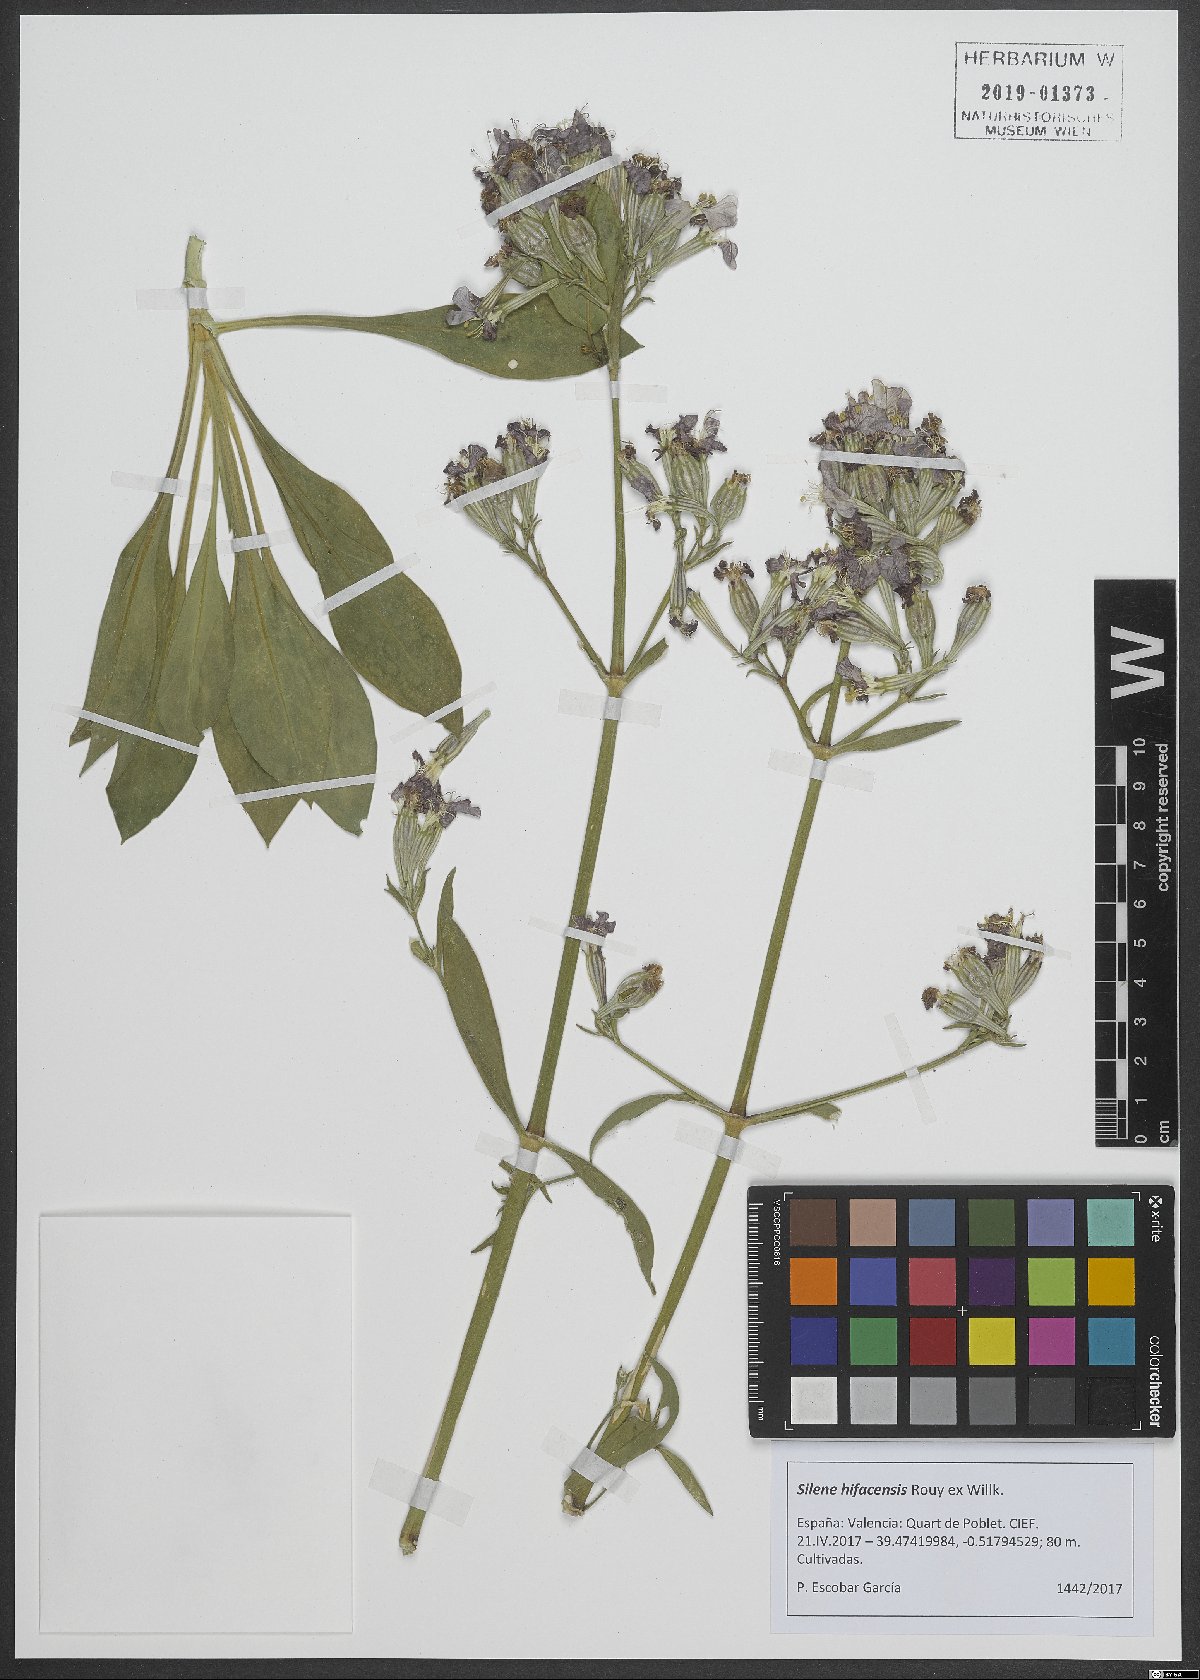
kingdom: Plantae
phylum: Tracheophyta
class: Magnoliopsida
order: Caryophyllales
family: Caryophyllaceae
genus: Silene
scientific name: Silene hifacensis
